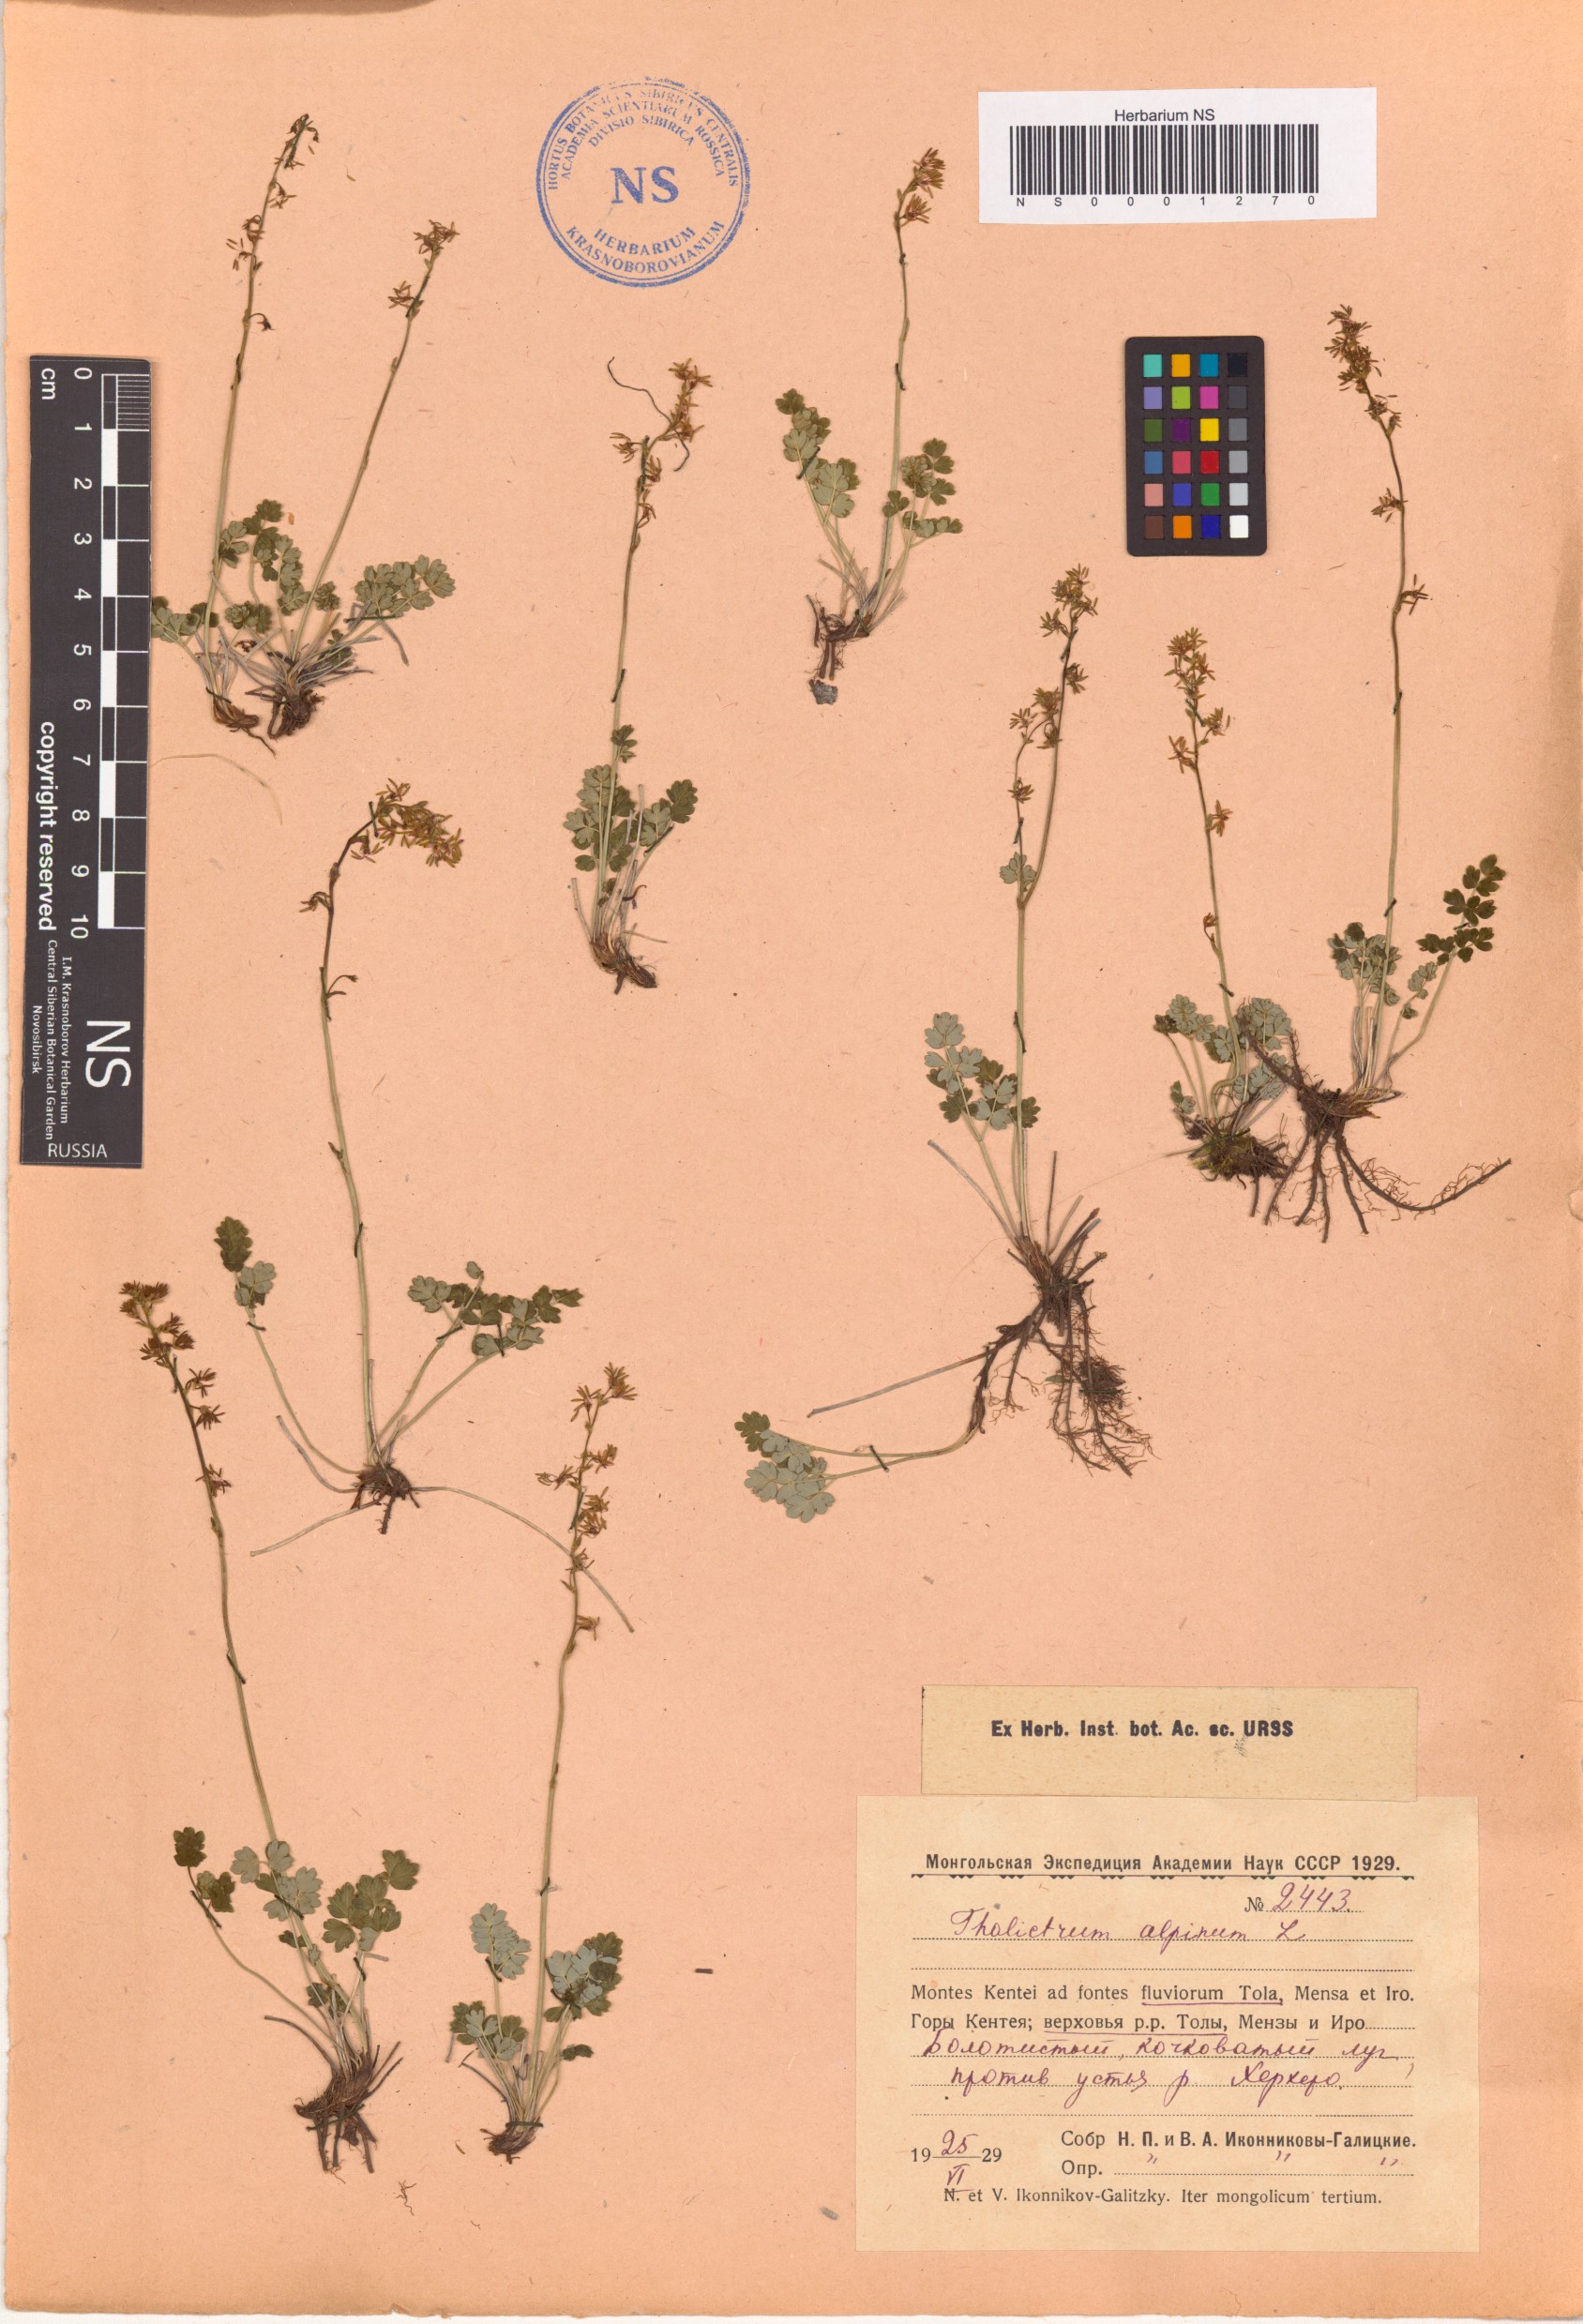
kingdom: Plantae
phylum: Tracheophyta
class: Magnoliopsida
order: Ranunculales
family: Ranunculaceae
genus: Thalictrum
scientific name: Thalictrum alpinum
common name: Alpine meadow-rue
